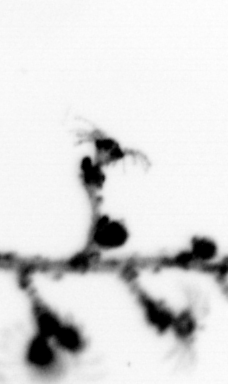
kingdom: Animalia
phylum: Cnidaria
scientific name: Cnidaria
